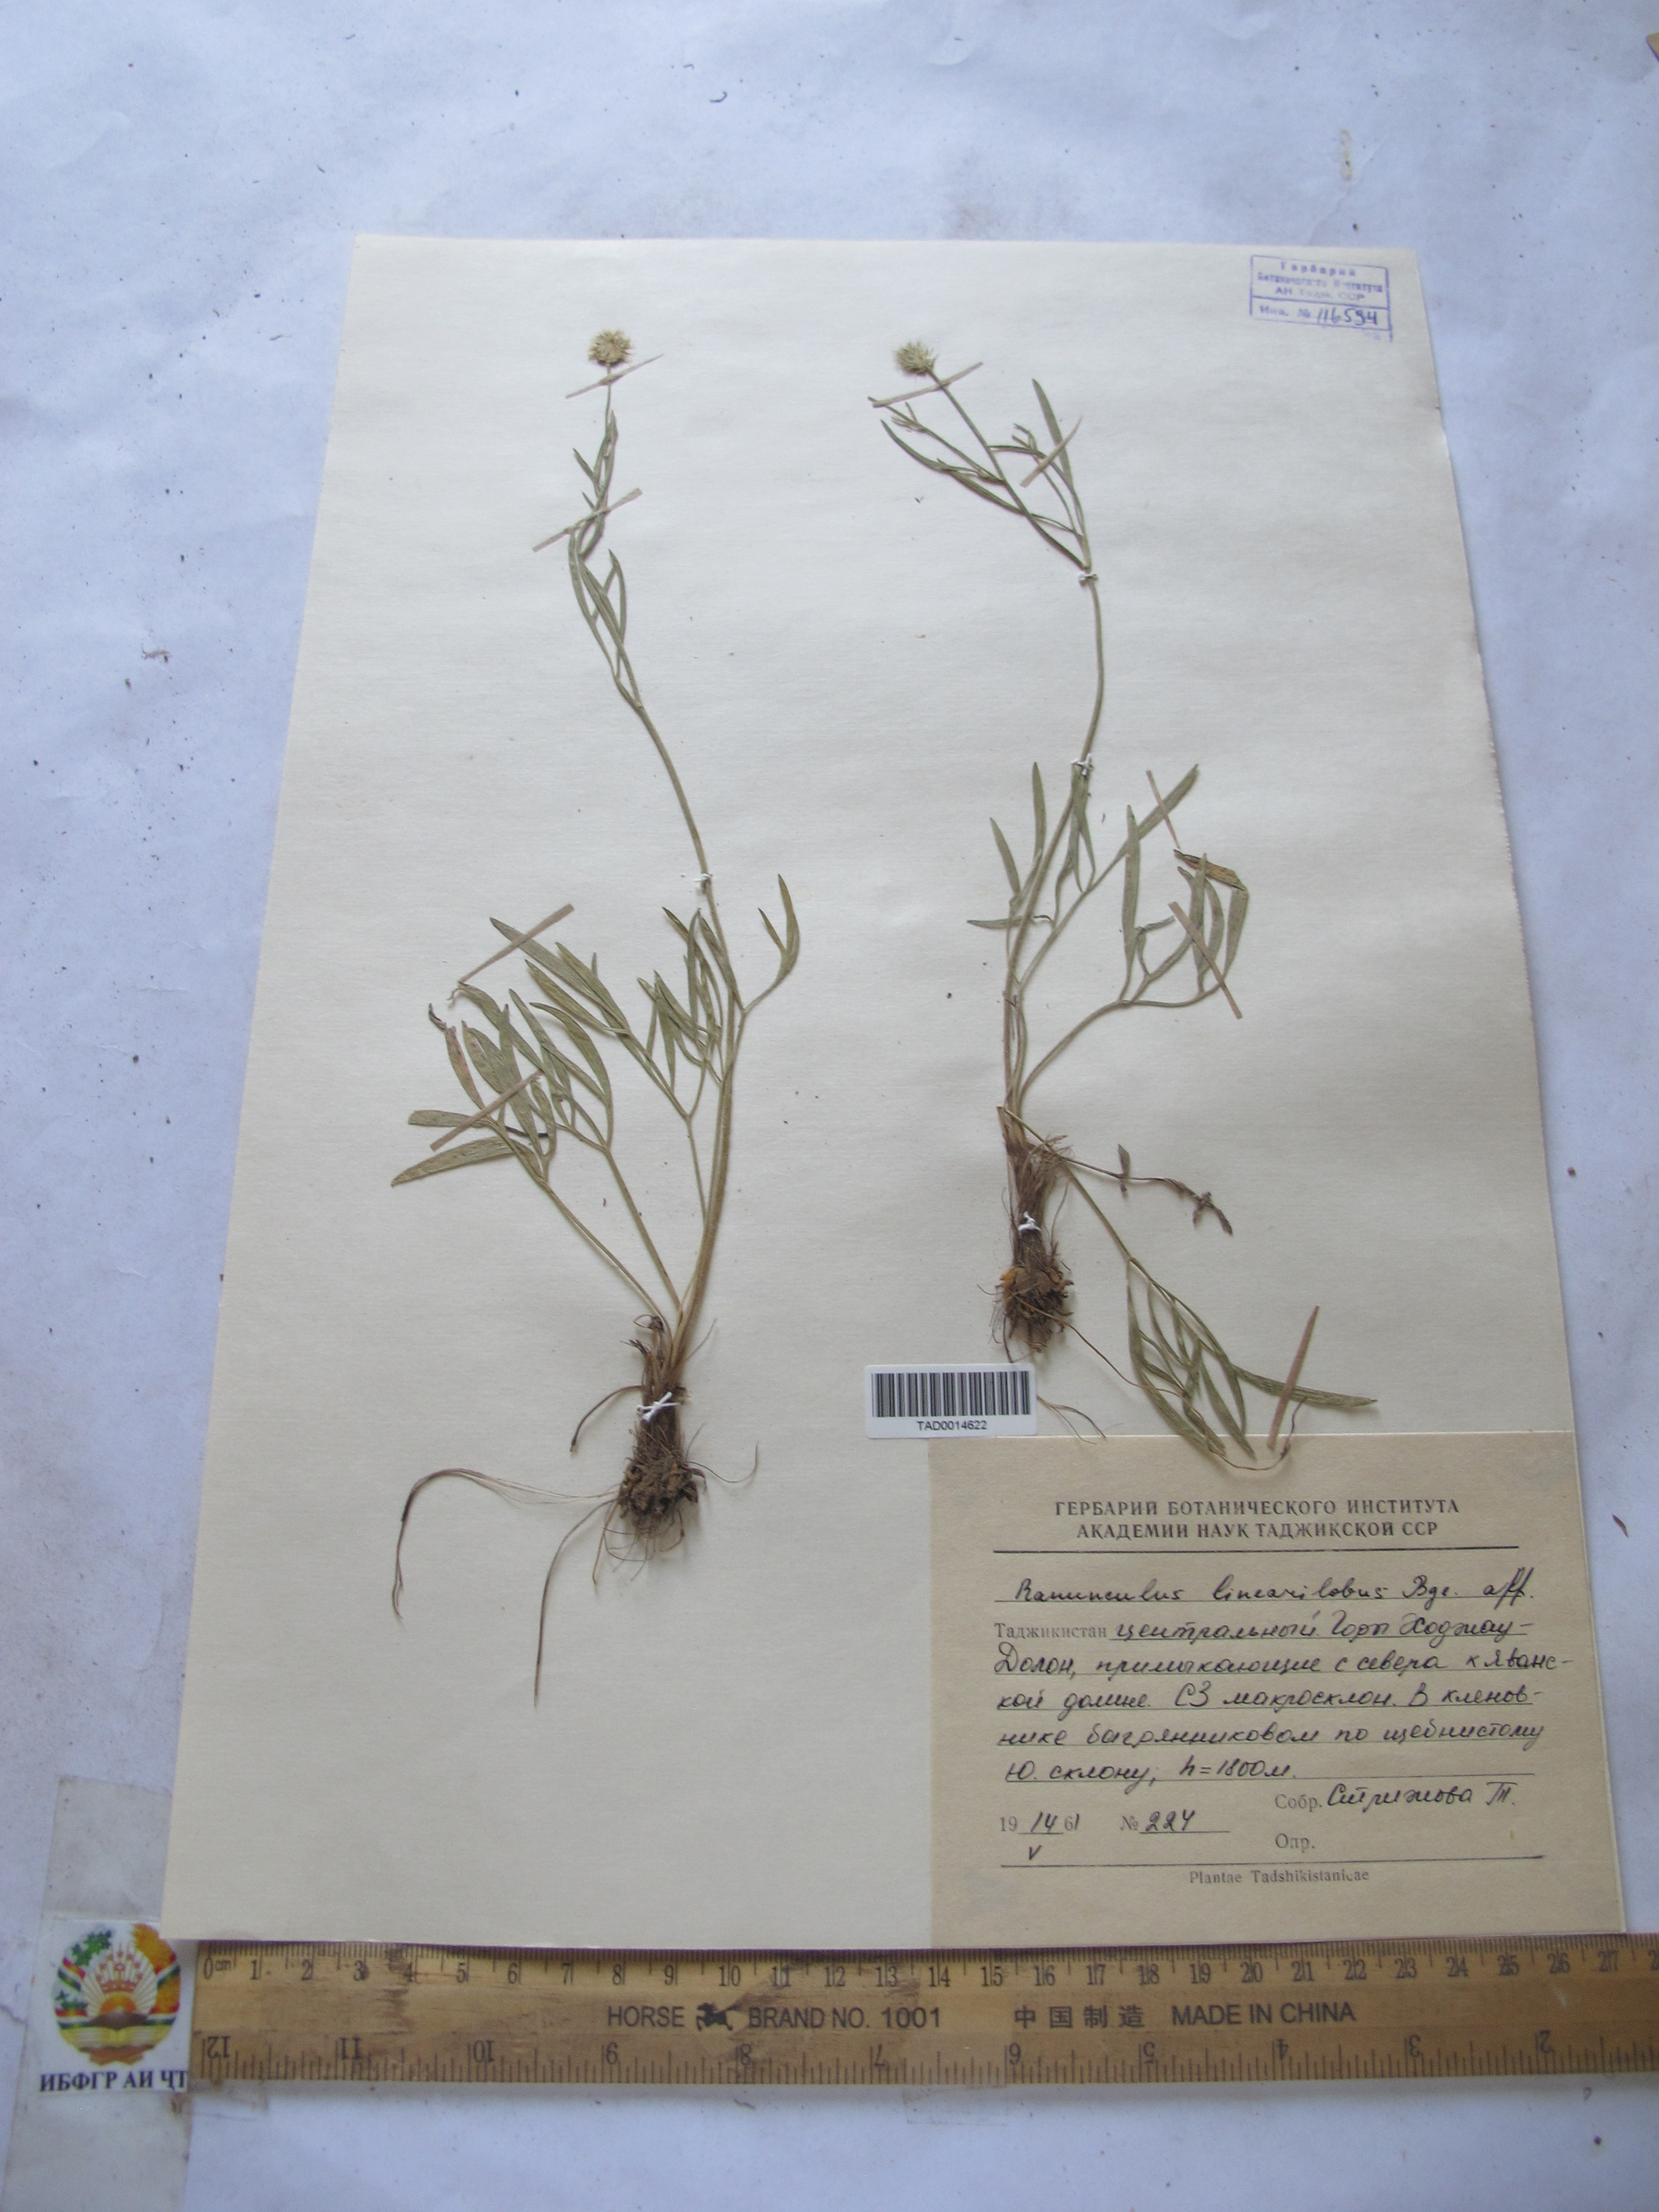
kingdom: Plantae
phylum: Tracheophyta
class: Magnoliopsida
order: Ranunculales
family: Ranunculaceae
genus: Ranunculus
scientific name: Ranunculus linearilobus
